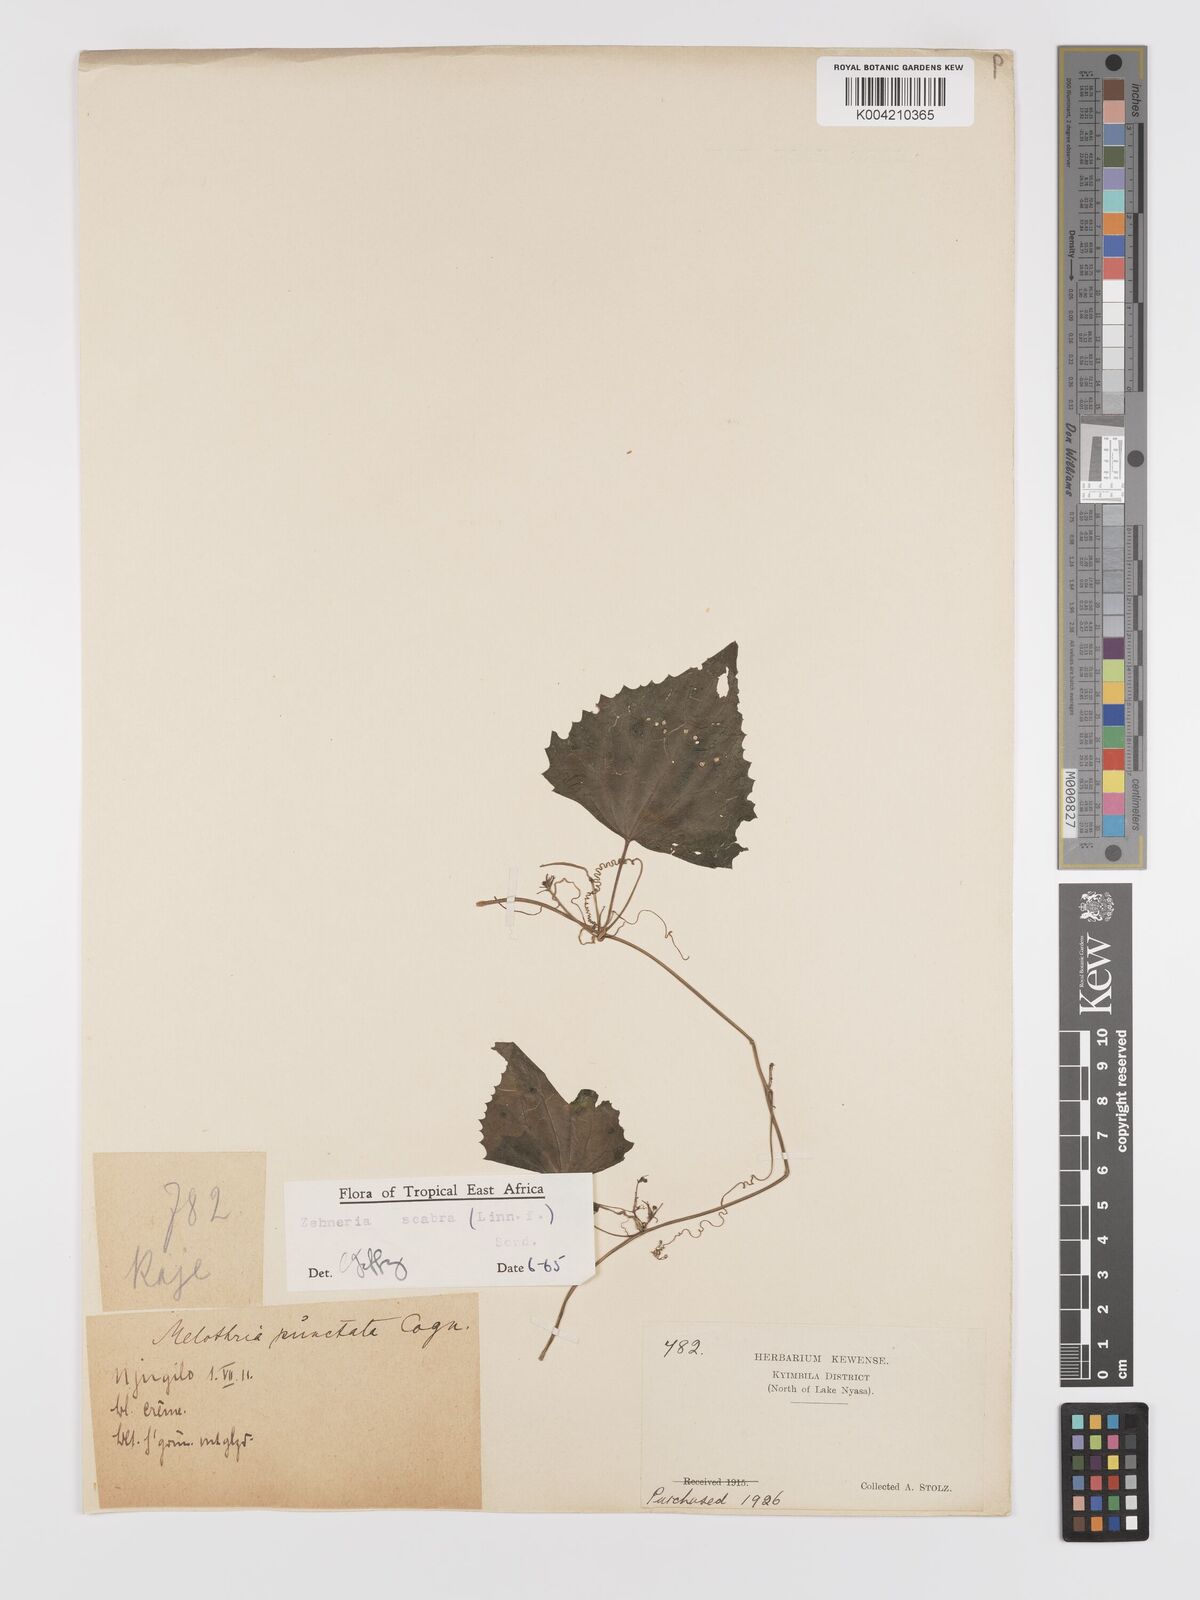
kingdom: Plantae
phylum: Tracheophyta
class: Magnoliopsida
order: Cucurbitales
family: Cucurbitaceae
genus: Zehneria
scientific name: Zehneria emirnensis
